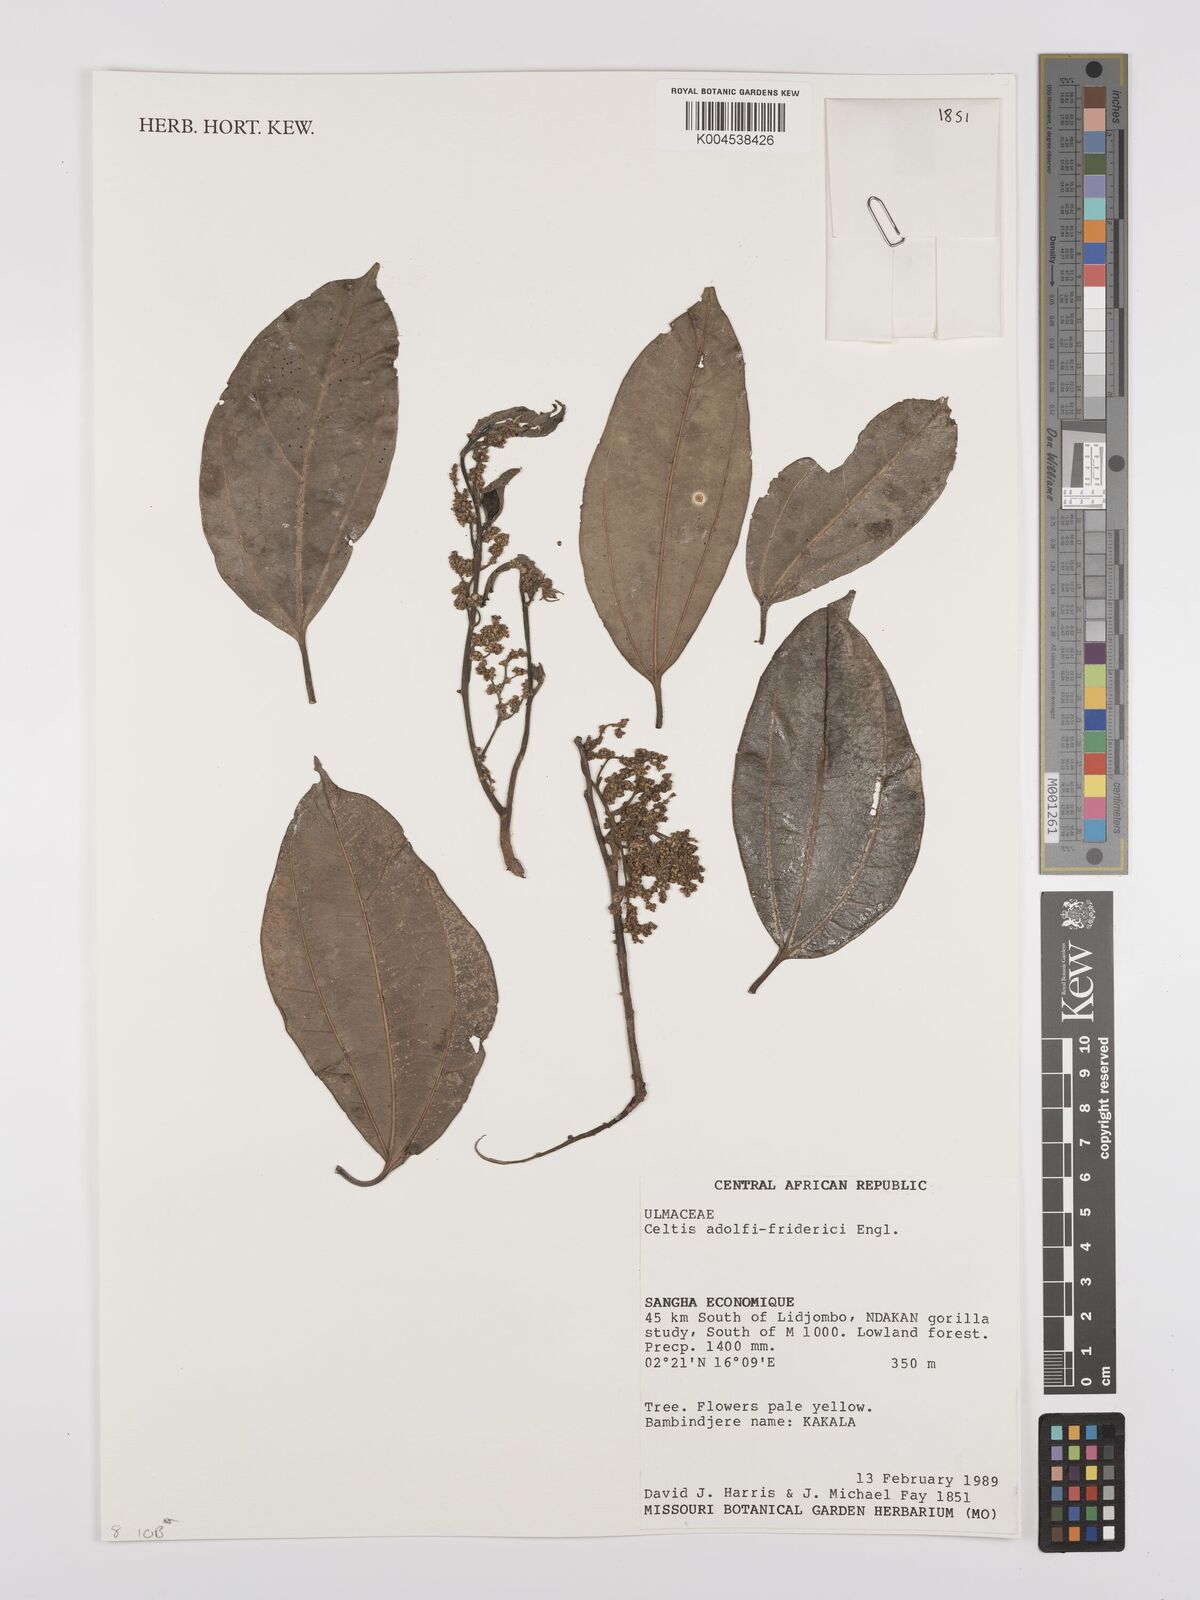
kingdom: Plantae
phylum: Tracheophyta
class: Magnoliopsida
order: Rosales
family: Cannabaceae
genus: Celtis
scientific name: Celtis adolfi-friderici
